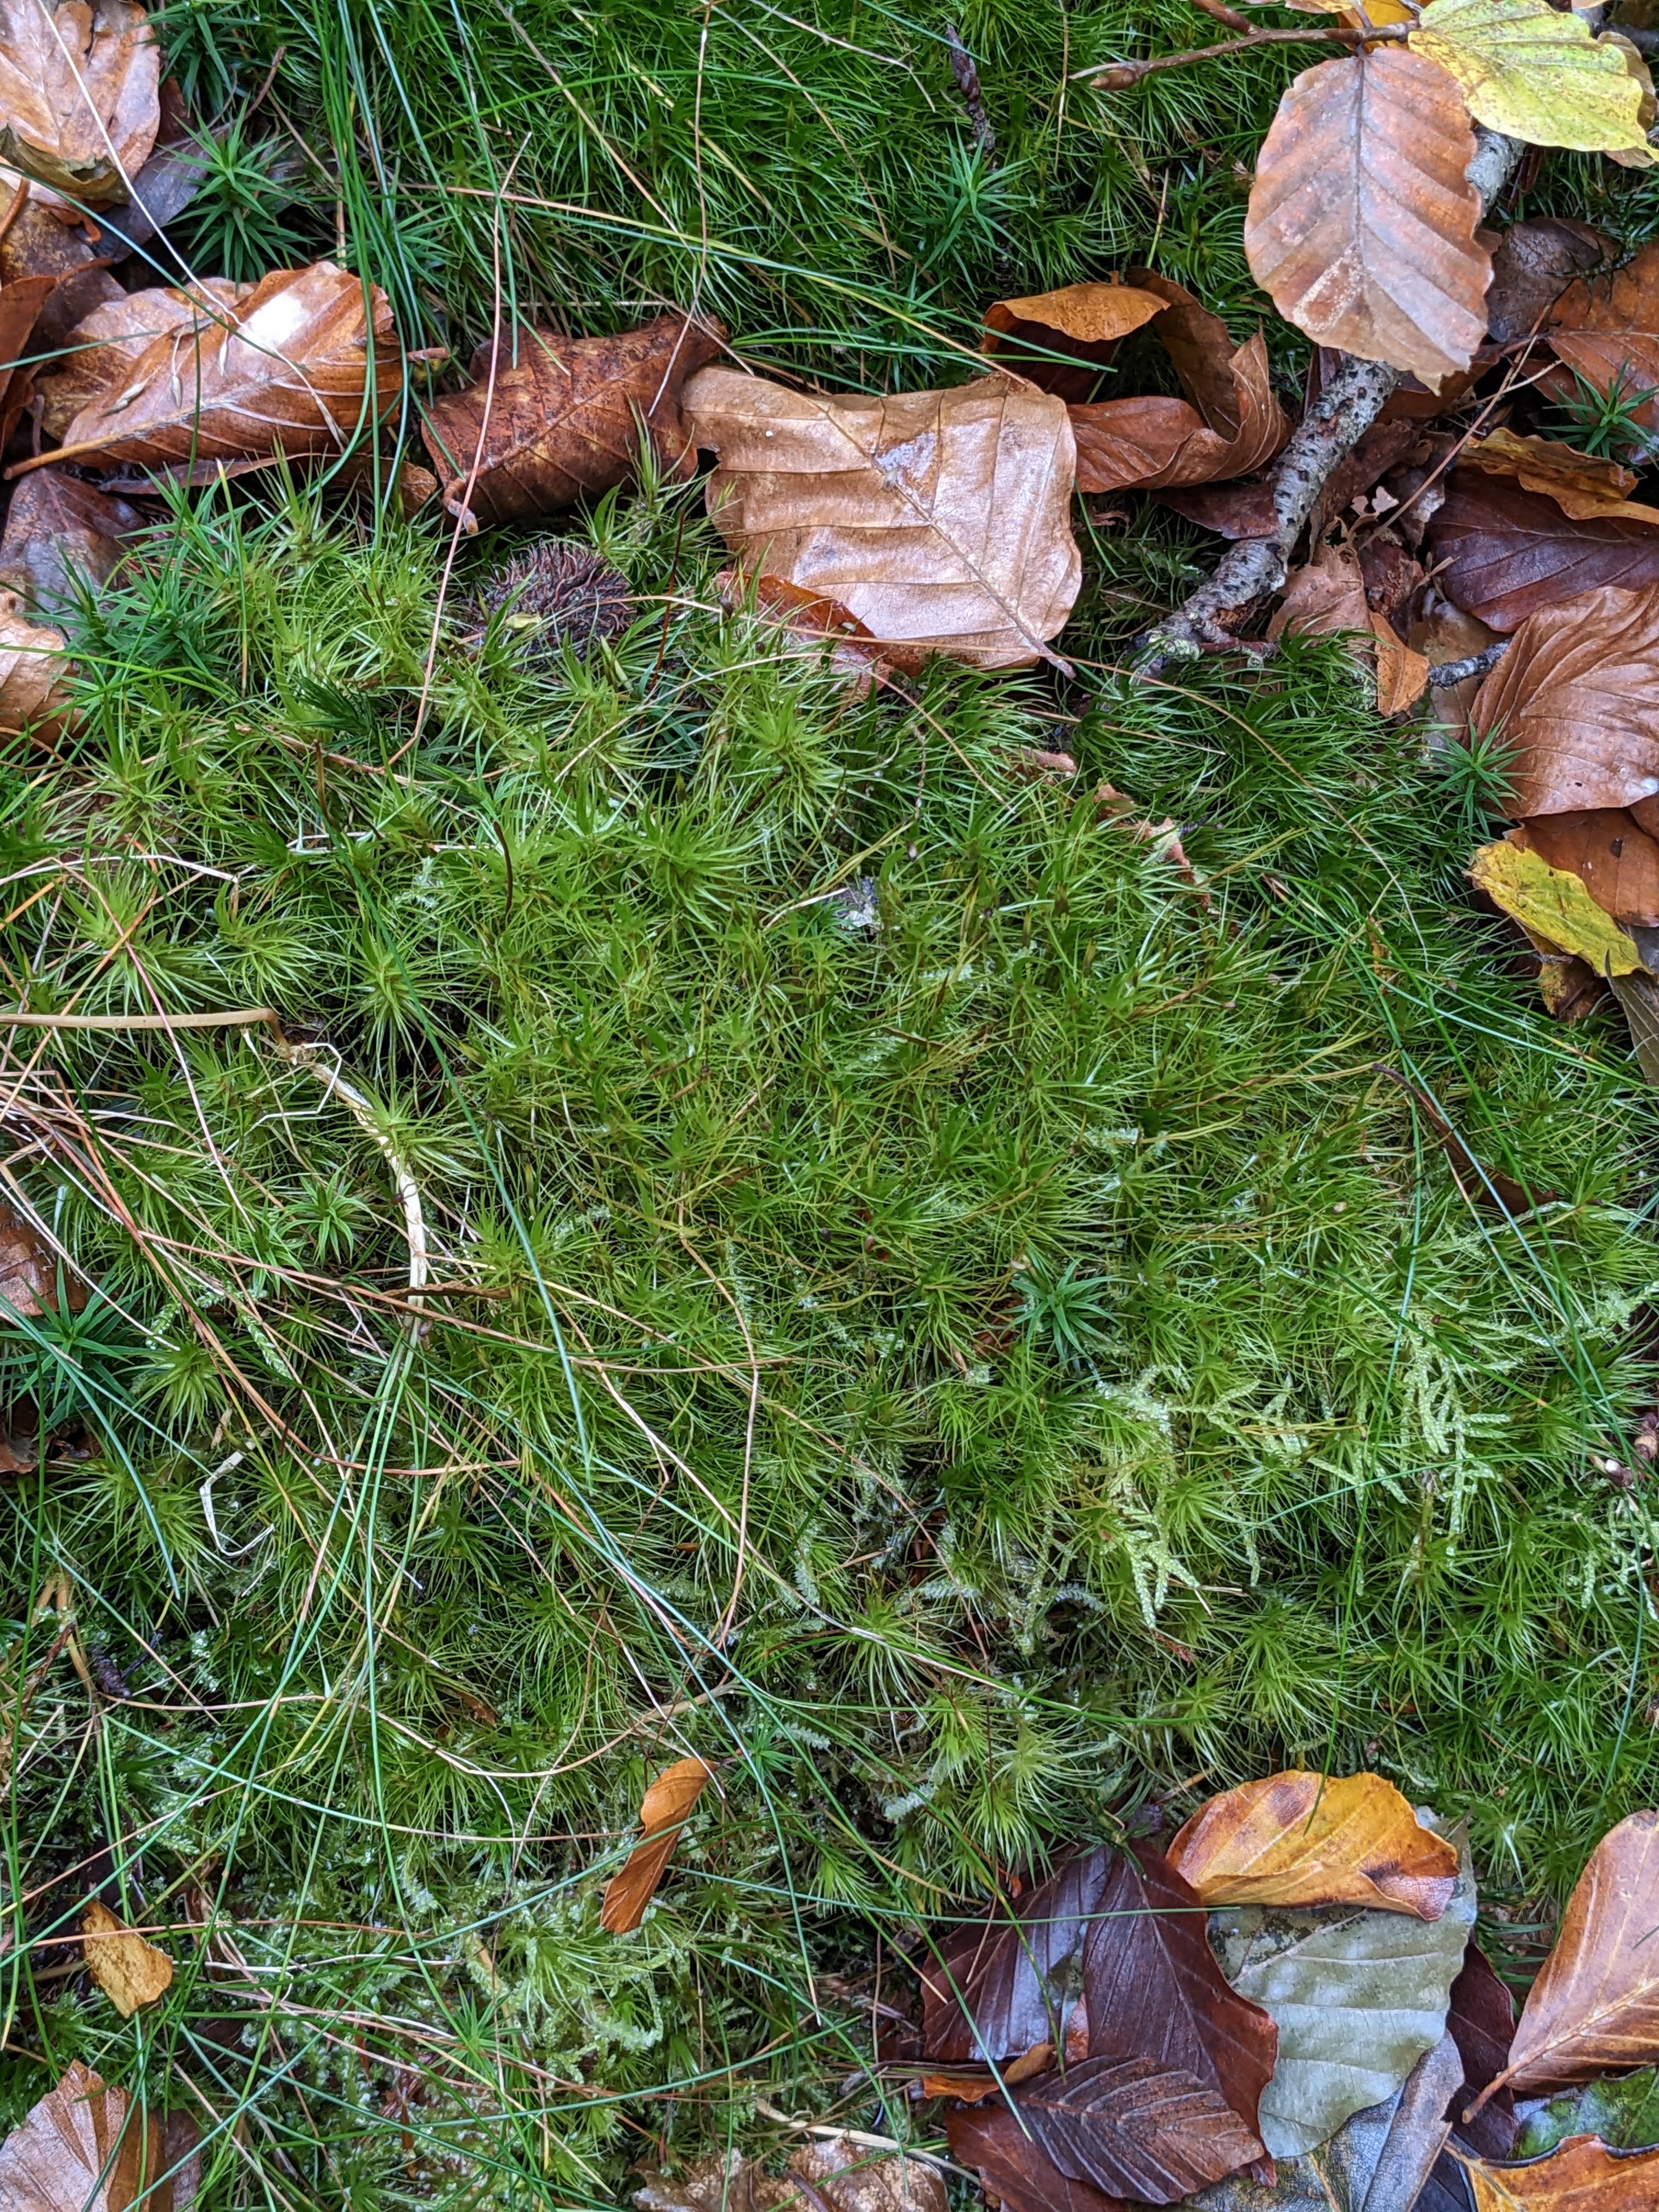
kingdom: Plantae
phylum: Bryophyta
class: Bryopsida
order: Dicranales
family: Dicranaceae
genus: Dicranum
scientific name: Dicranum majus
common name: Stor kløvtand
